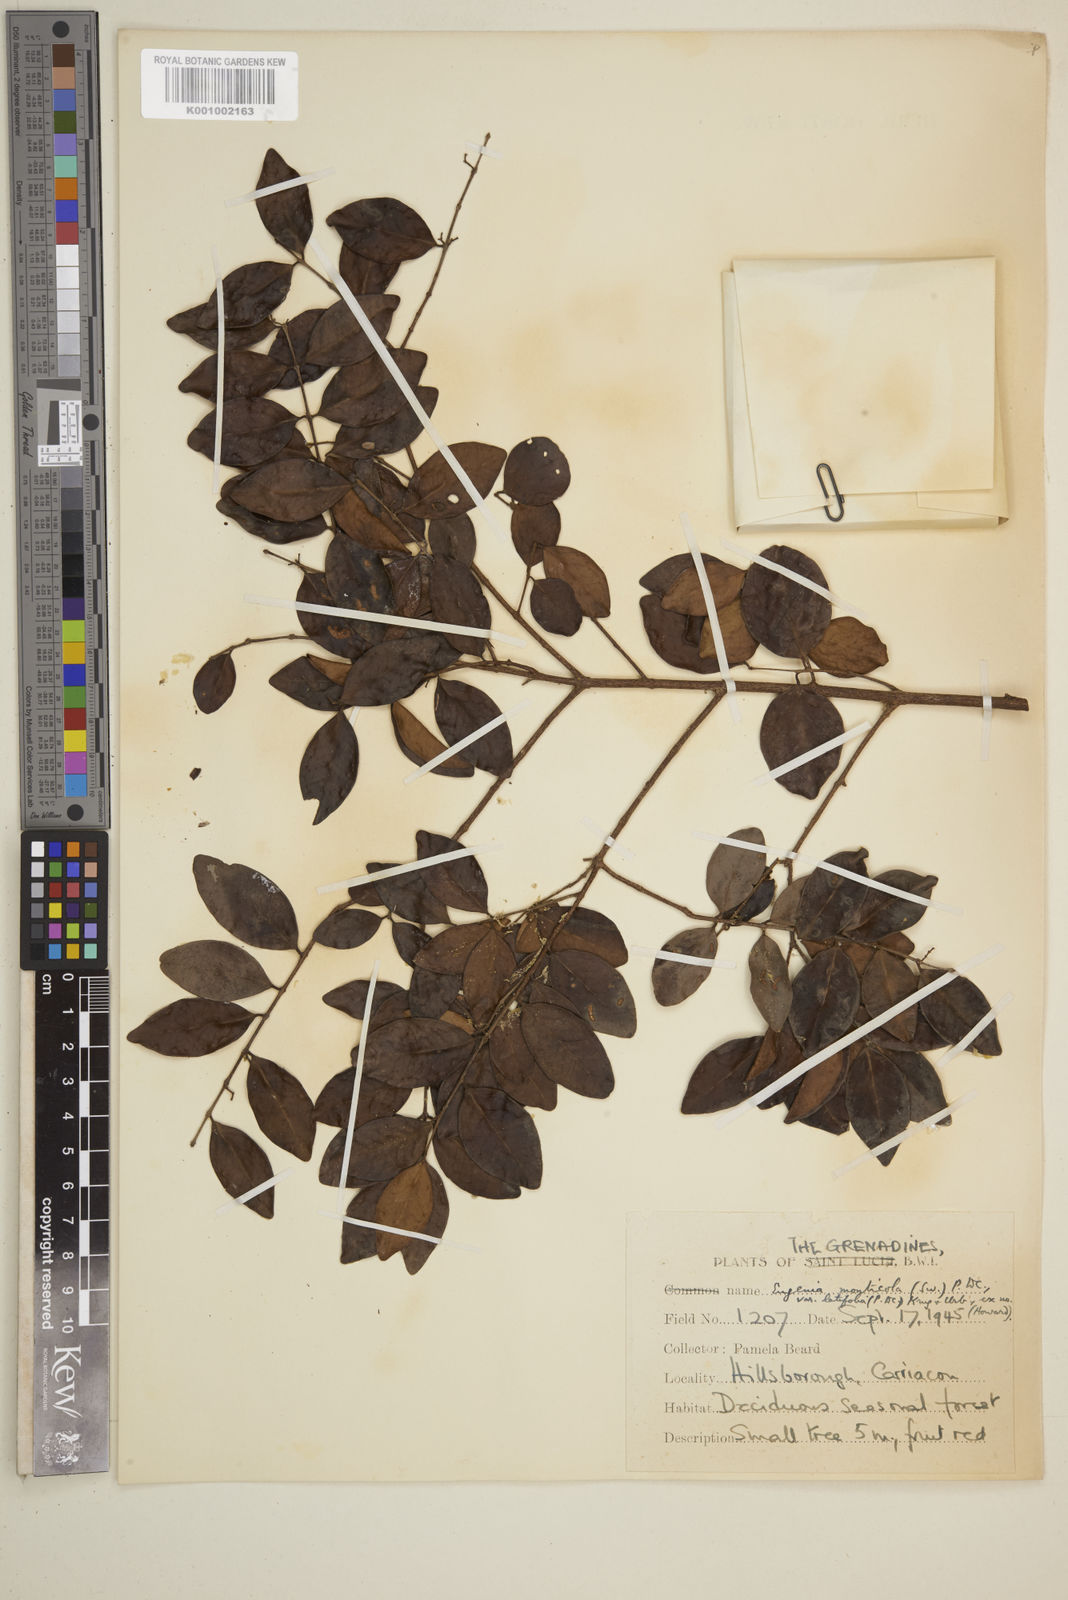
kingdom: Plantae
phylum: Tracheophyta
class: Magnoliopsida
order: Myrtales
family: Myrtaceae
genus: Eugenia
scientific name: Eugenia monticola
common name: Birds berry
